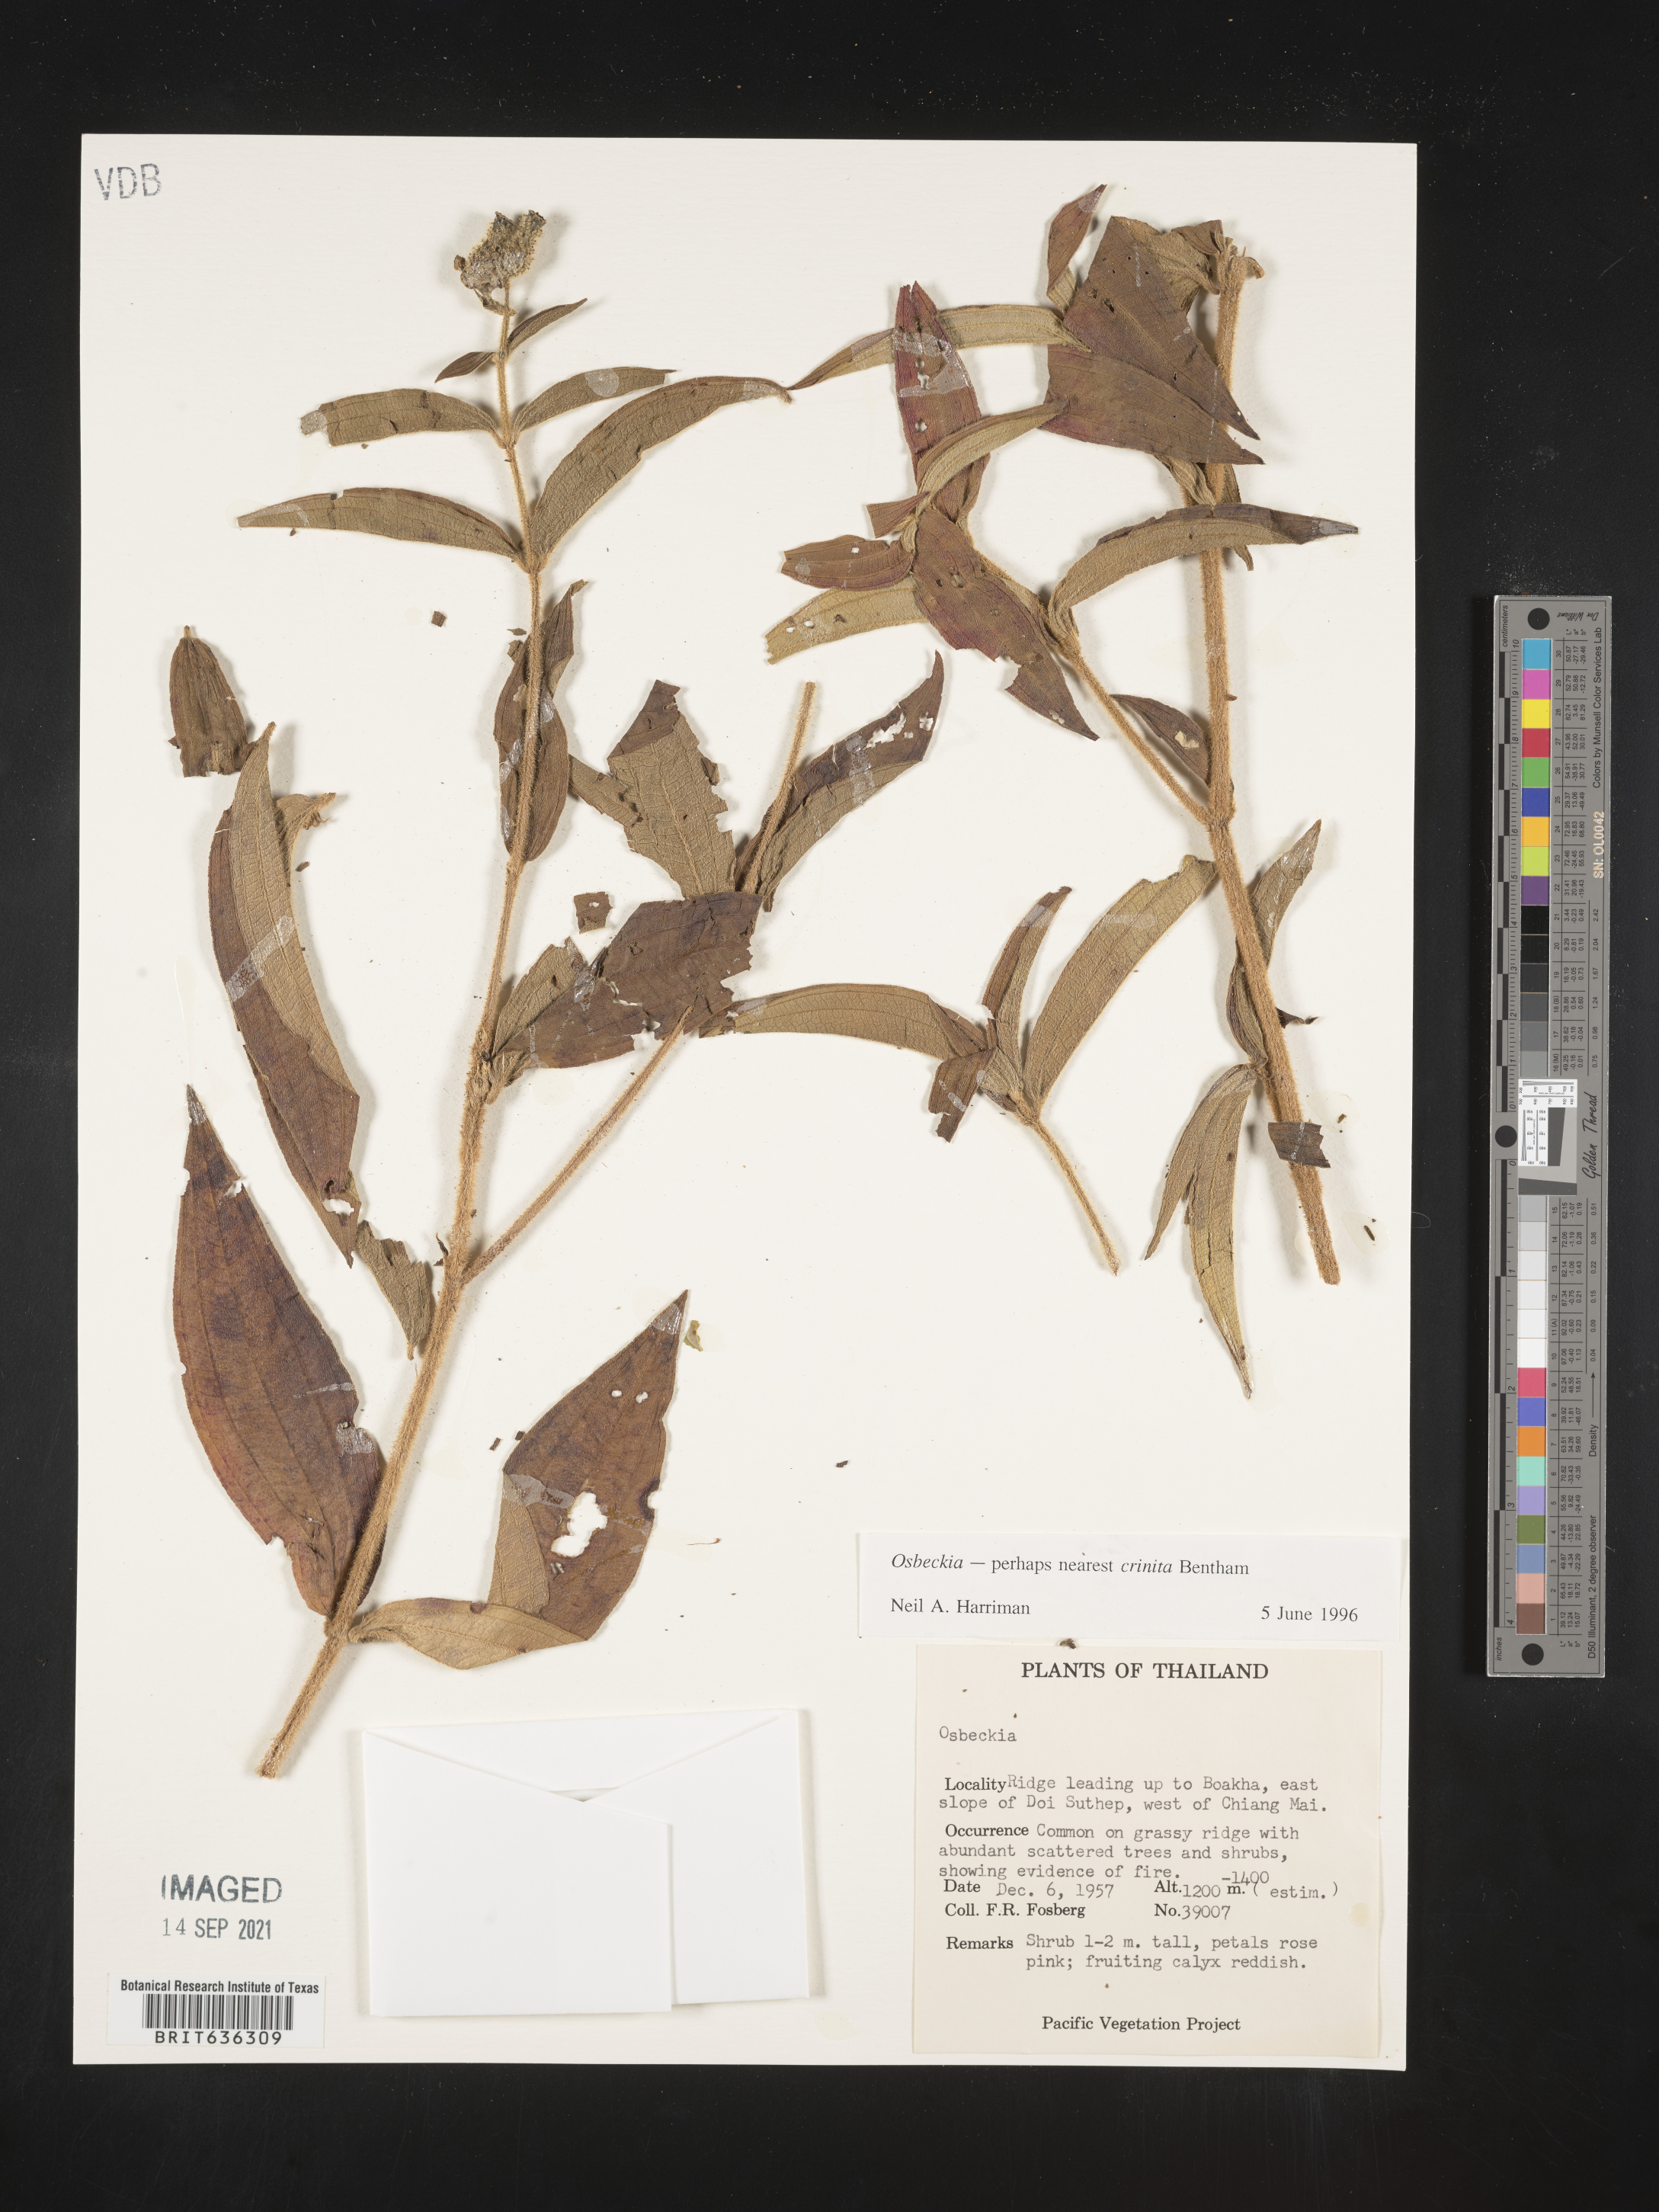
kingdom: Plantae
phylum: Tracheophyta
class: Magnoliopsida
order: Myrtales
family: Melastomataceae
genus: Osbeckia
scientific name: Osbeckia
